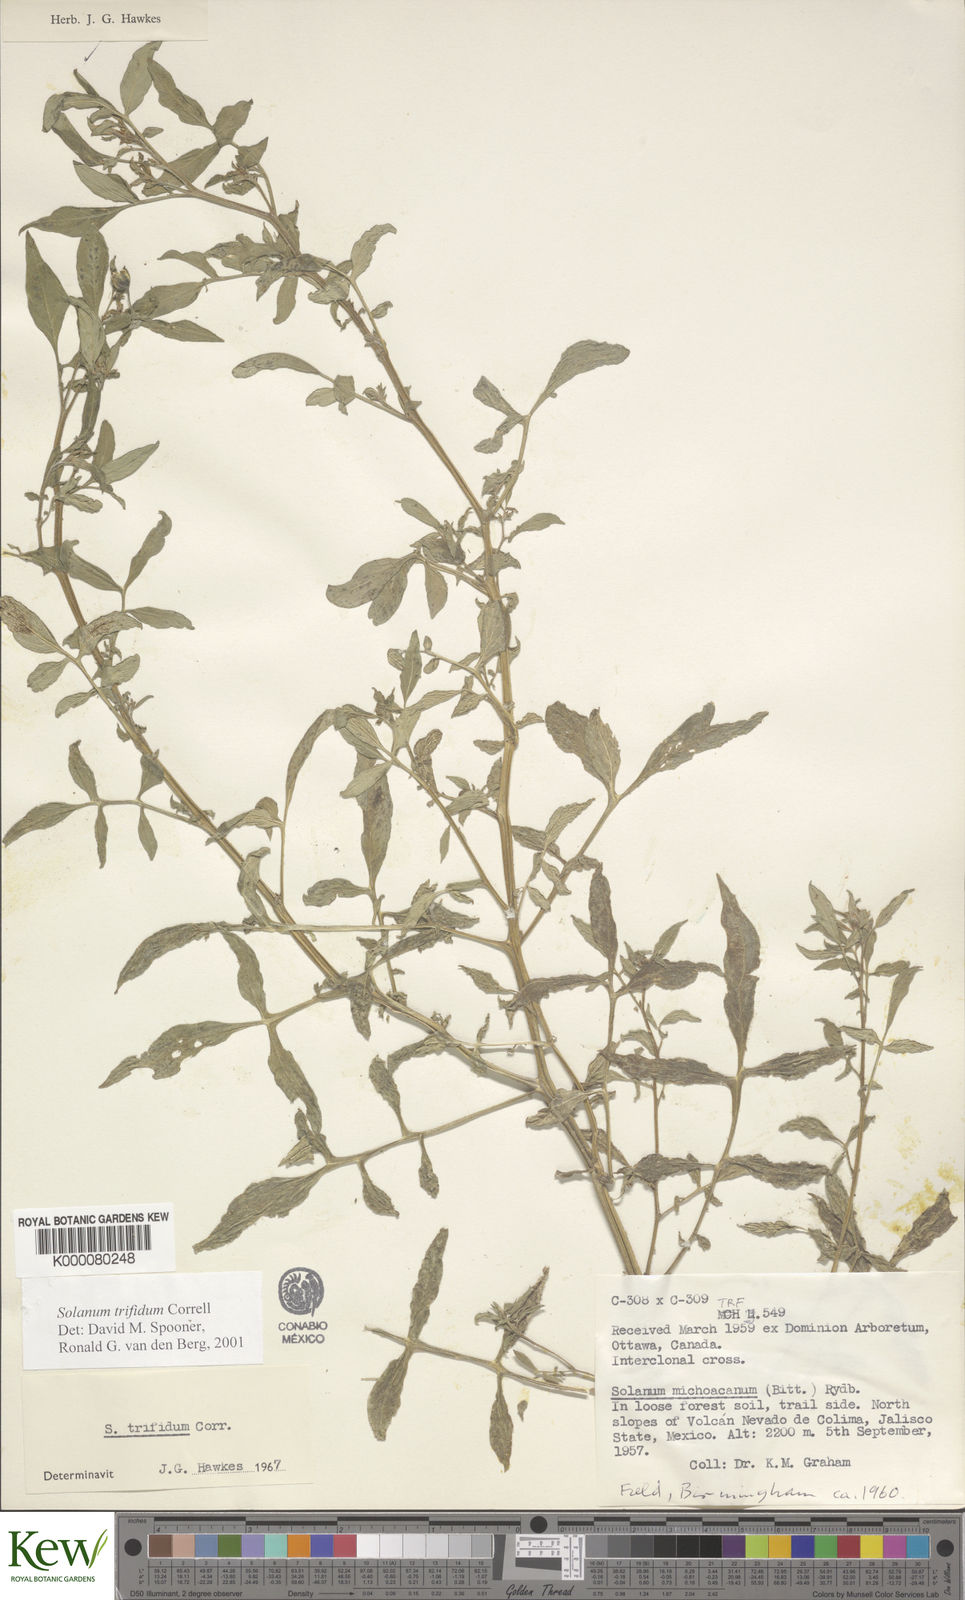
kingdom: Plantae
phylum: Tracheophyta
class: Magnoliopsida
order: Solanales
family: Solanaceae
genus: Solanum
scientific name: Solanum trifidum
